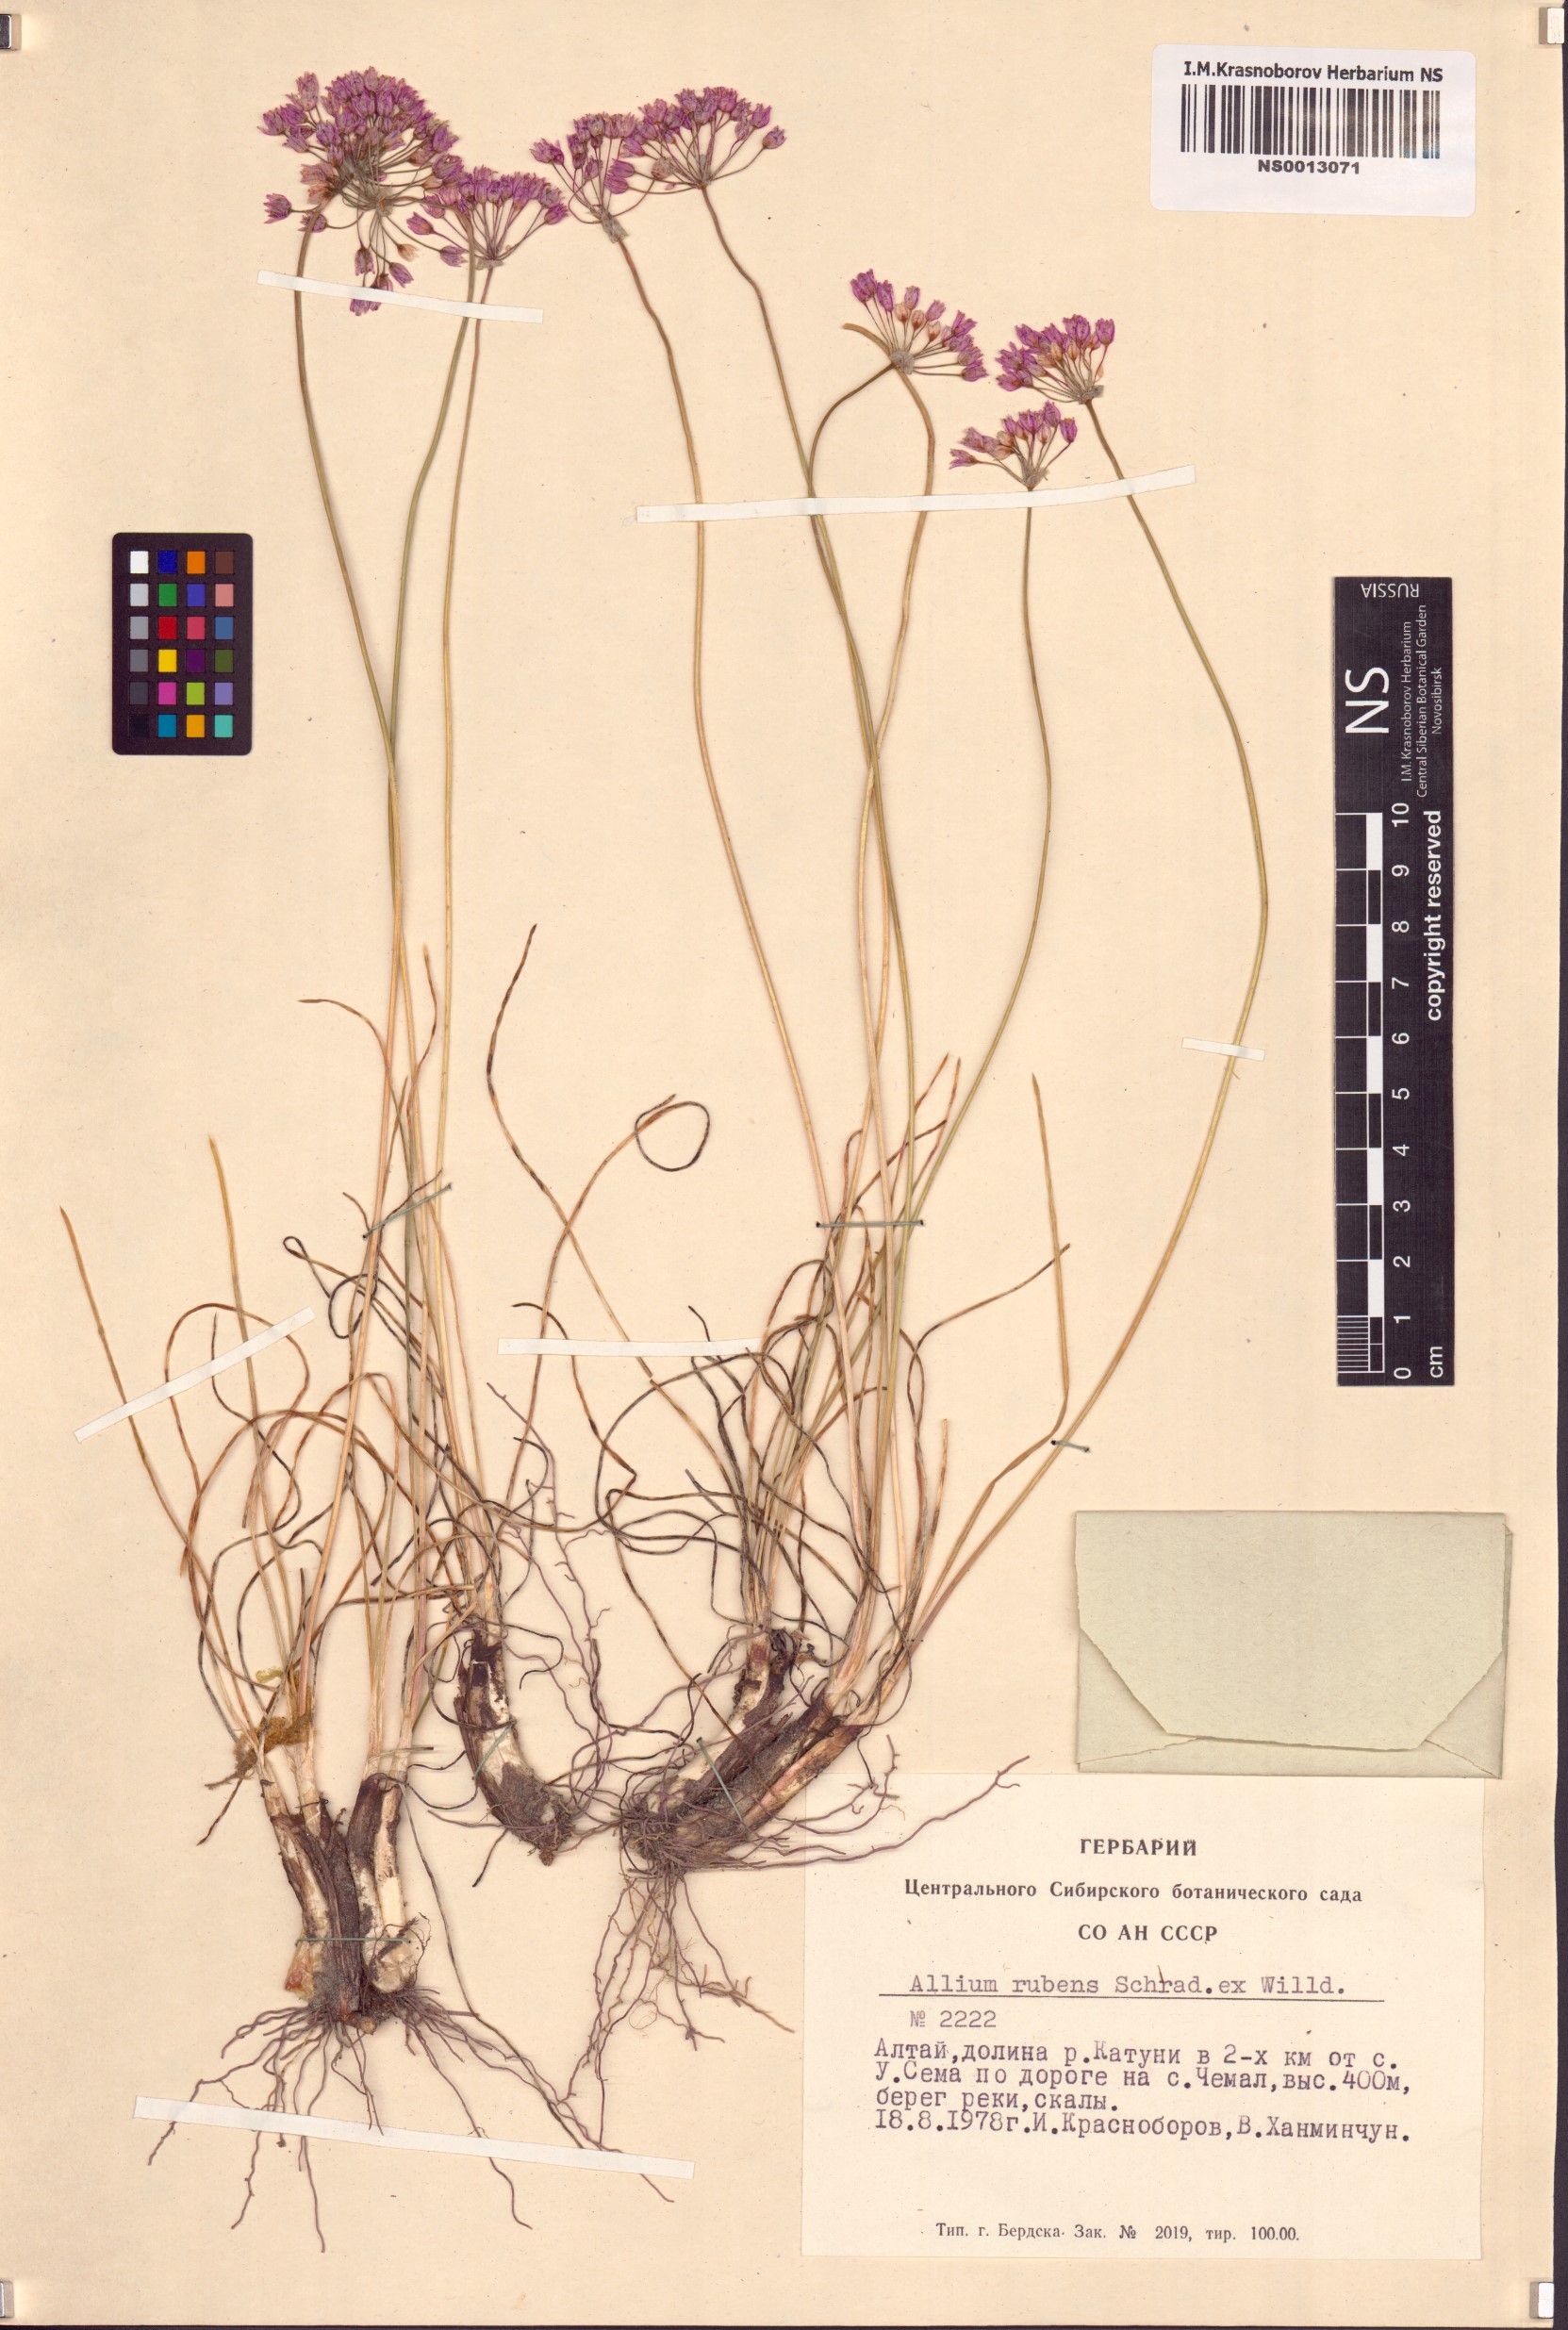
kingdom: Plantae
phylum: Tracheophyta
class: Liliopsida
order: Asparagales
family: Amaryllidaceae
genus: Allium
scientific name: Allium rubens
